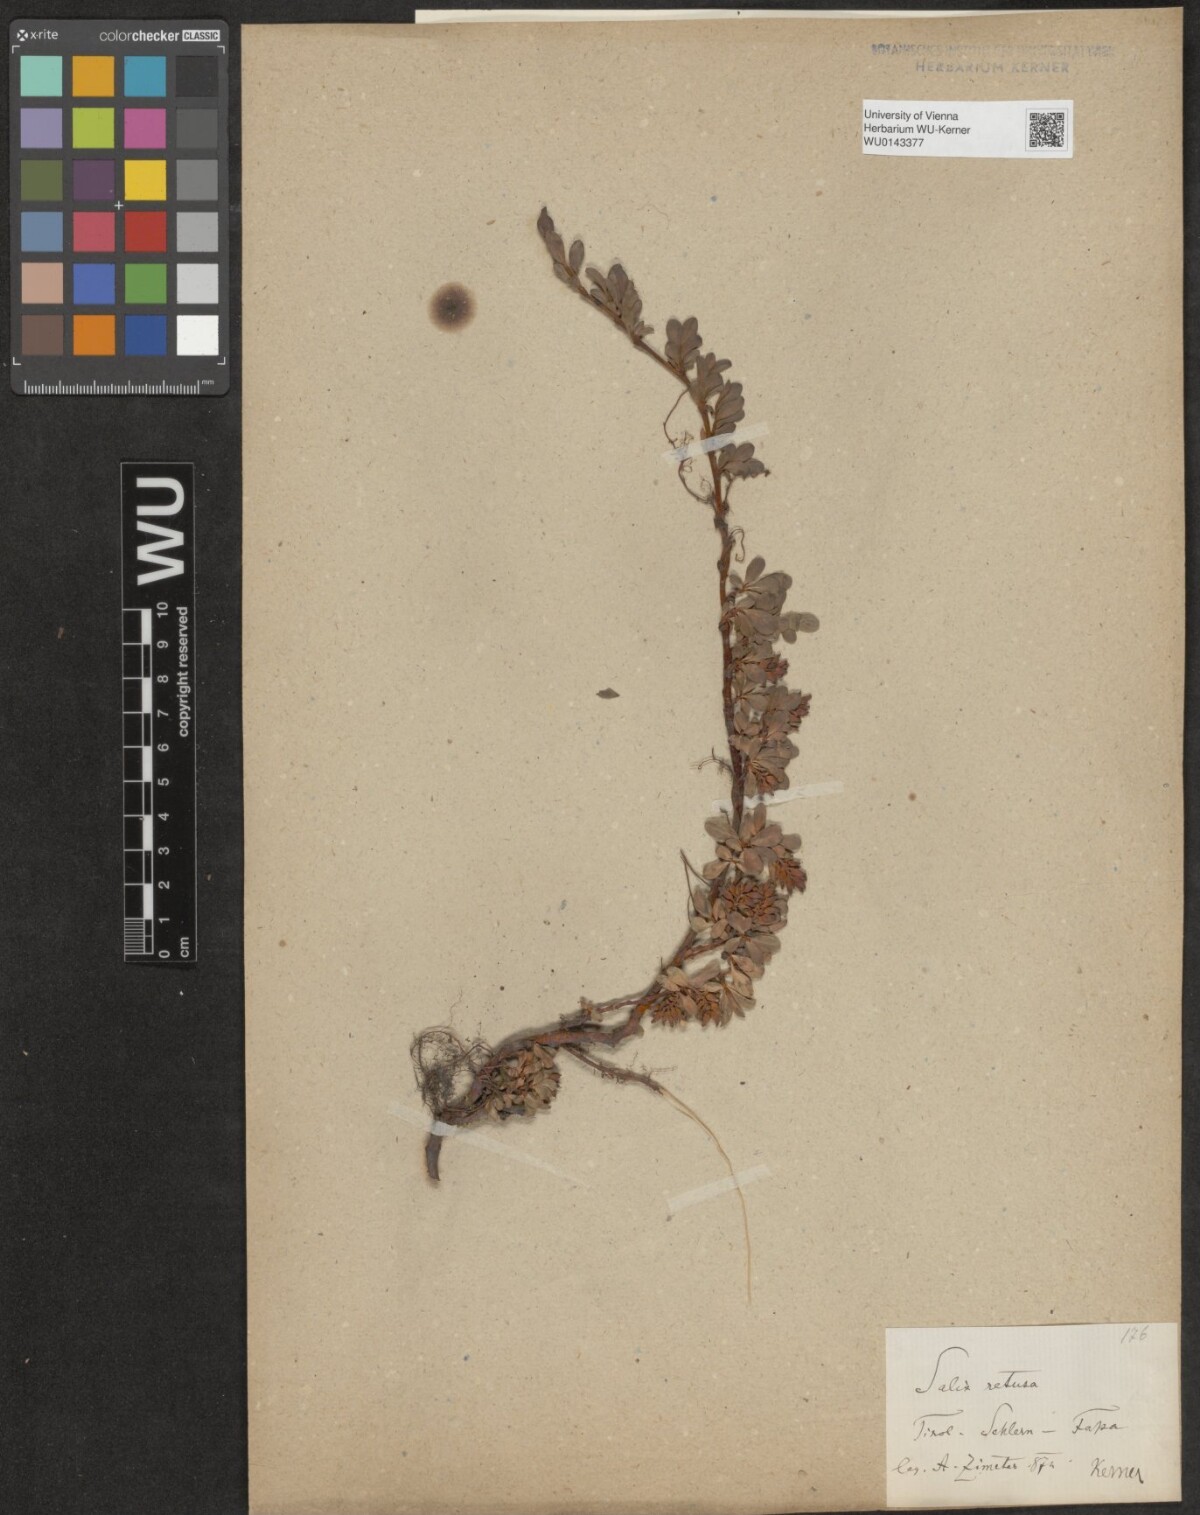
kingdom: Plantae
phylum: Tracheophyta
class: Magnoliopsida
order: Malpighiales
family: Salicaceae
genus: Salix
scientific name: Salix retusa
